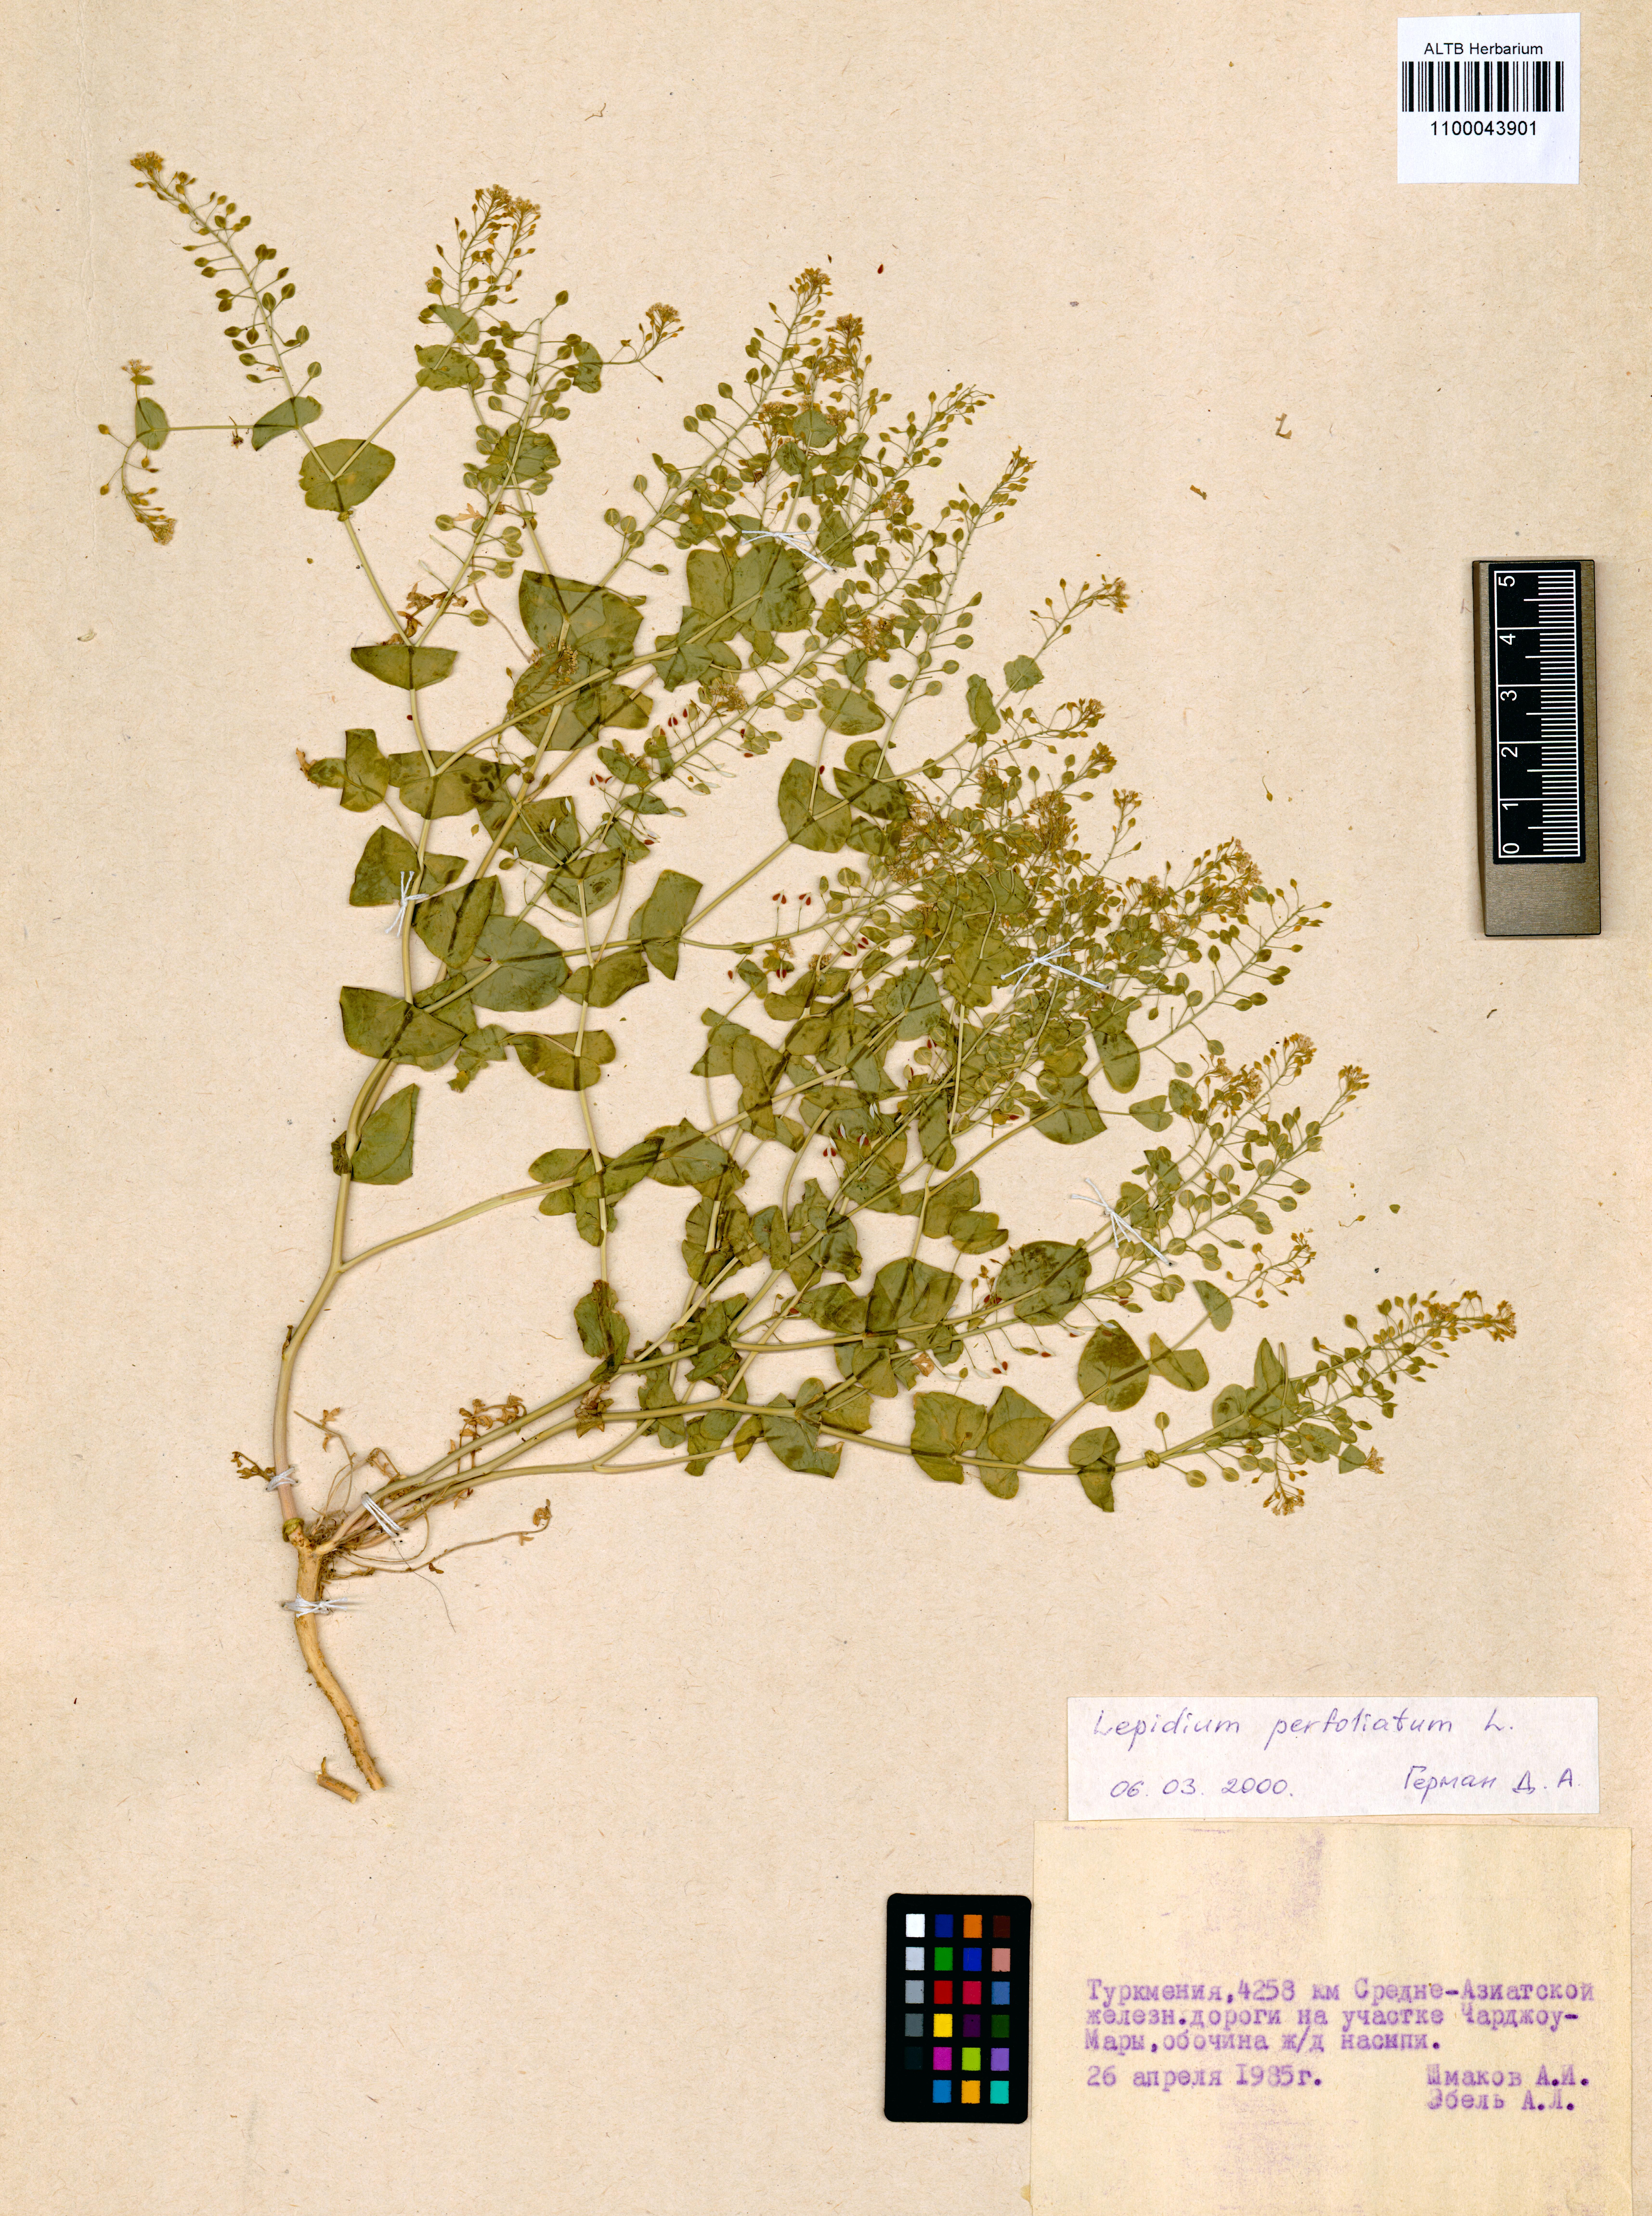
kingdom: Plantae
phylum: Tracheophyta
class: Magnoliopsida
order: Brassicales
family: Brassicaceae
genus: Lepidium
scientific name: Lepidium perfoliatum
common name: Perfoliate pepperwort
